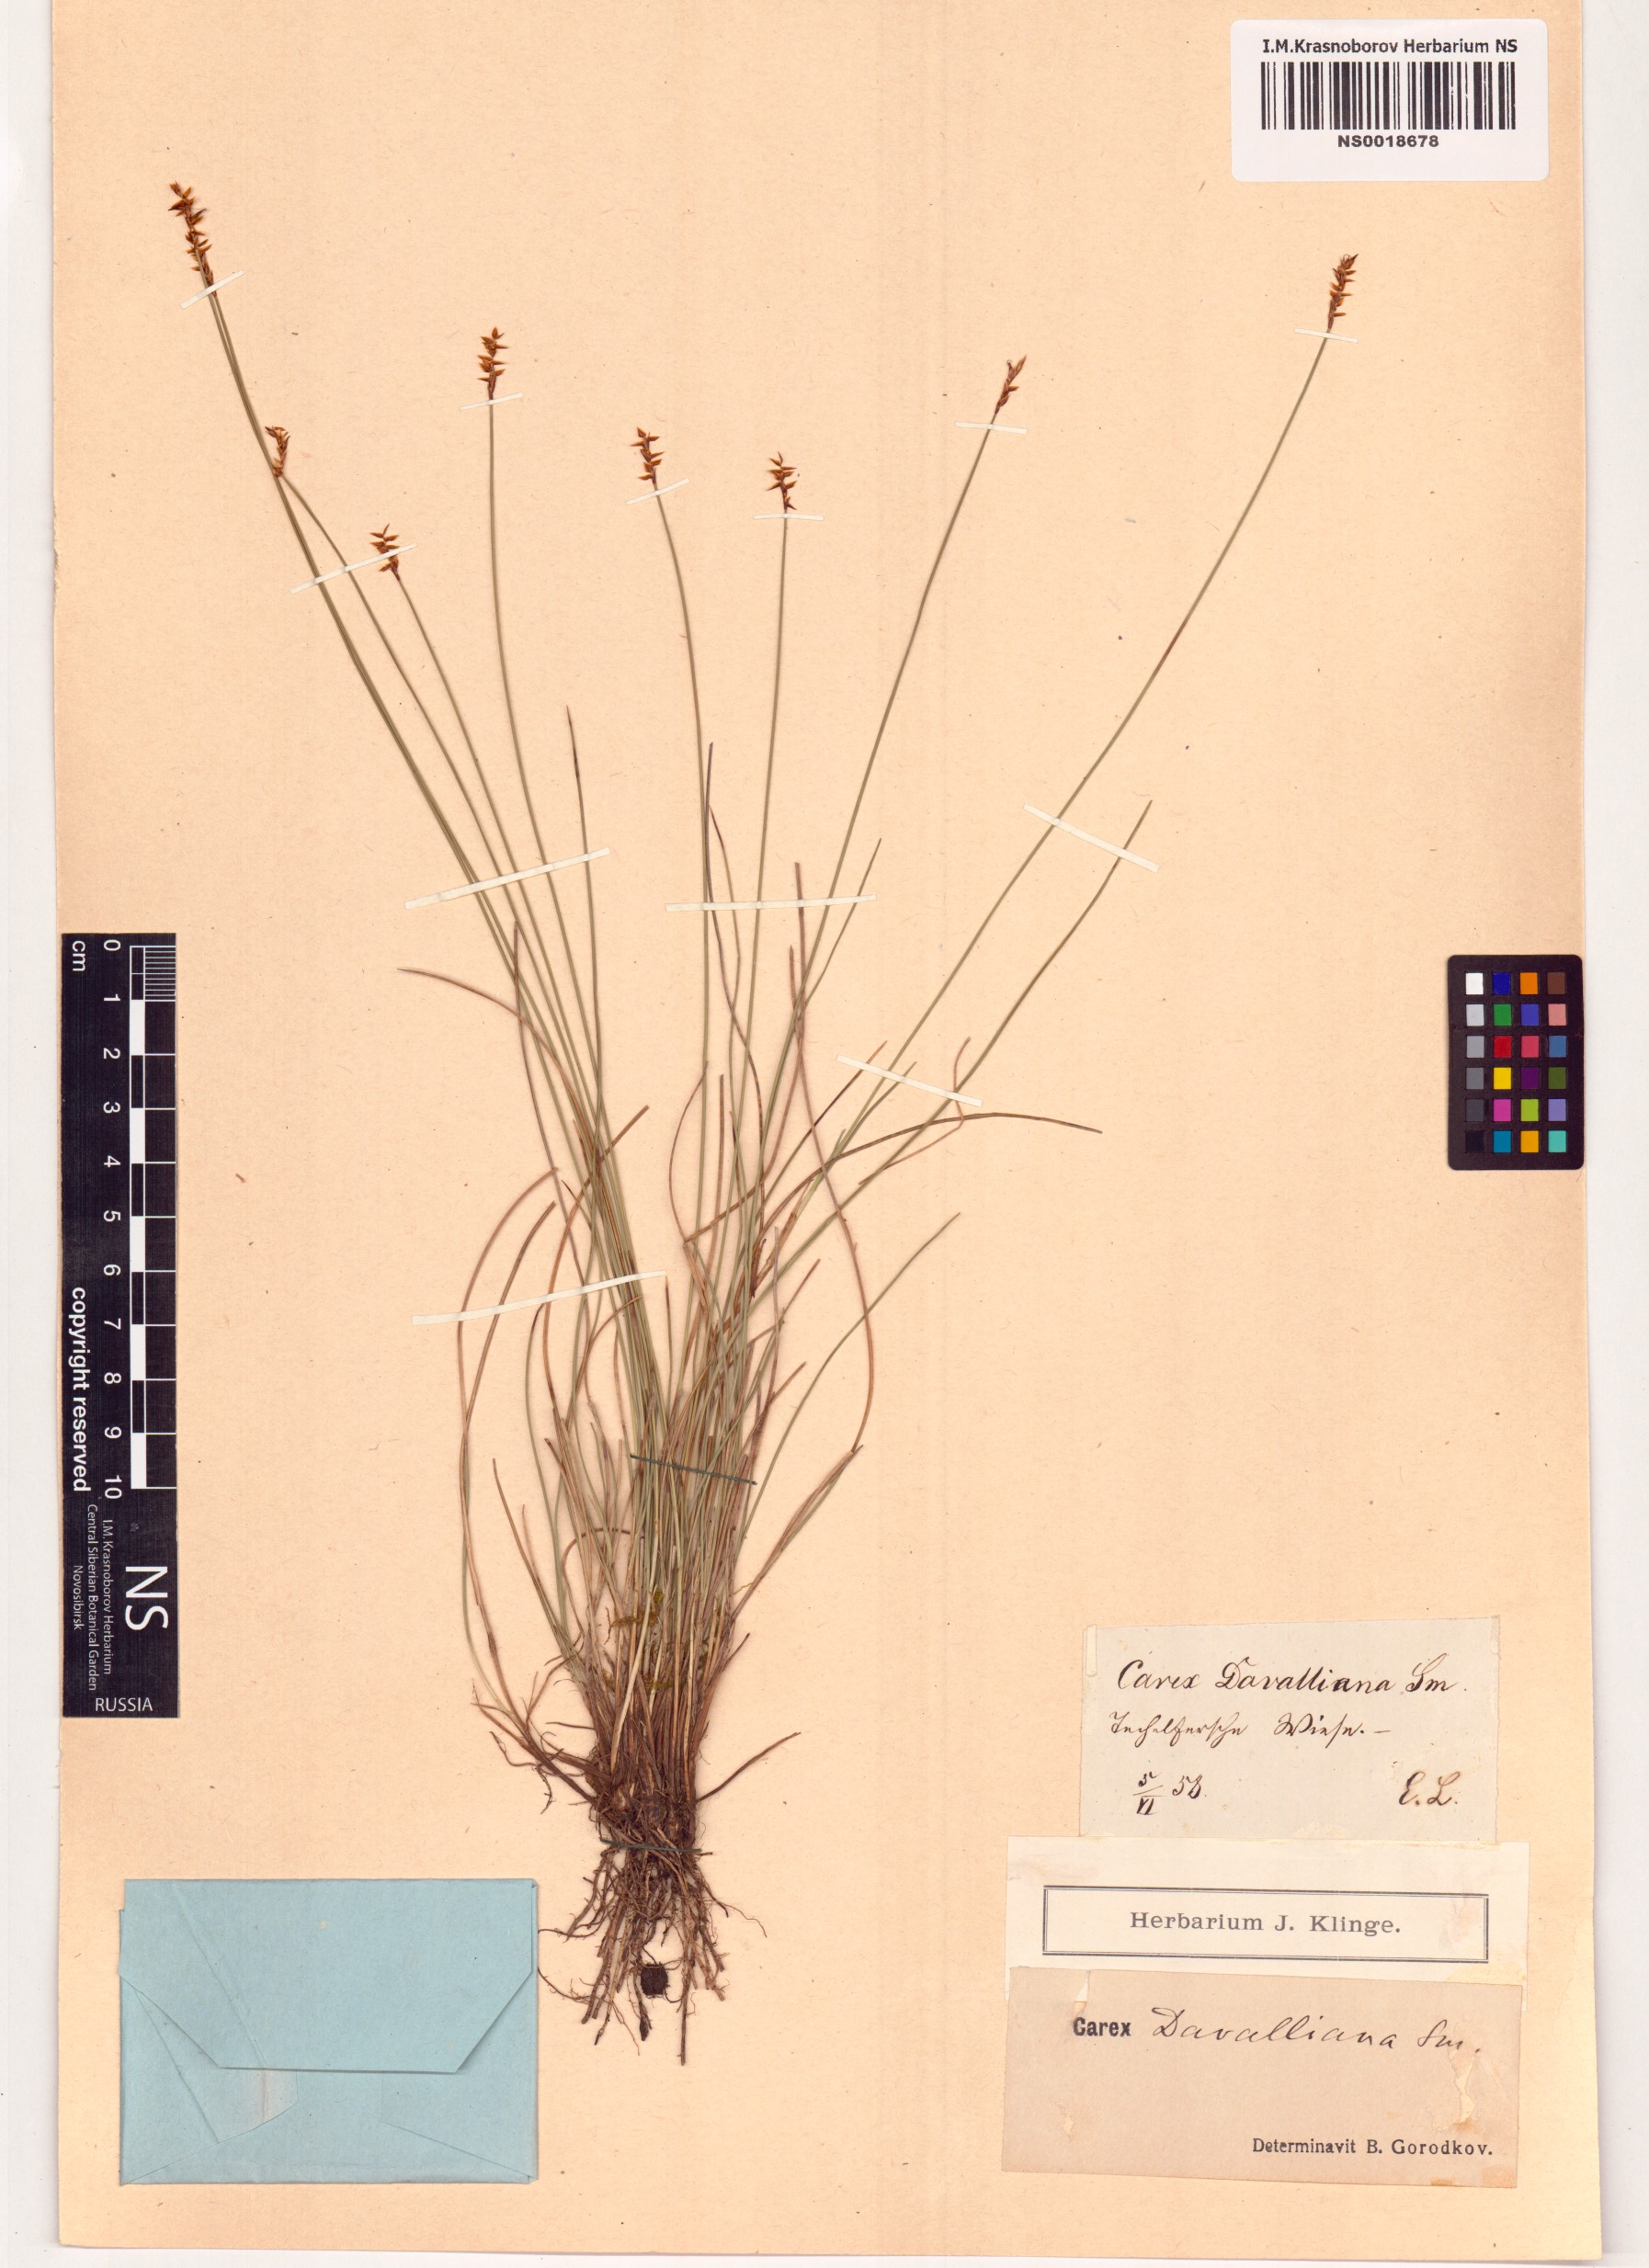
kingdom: Plantae
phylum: Tracheophyta
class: Liliopsida
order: Poales
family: Cyperaceae
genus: Carex
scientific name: Carex davalliana
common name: Davall's sedge
